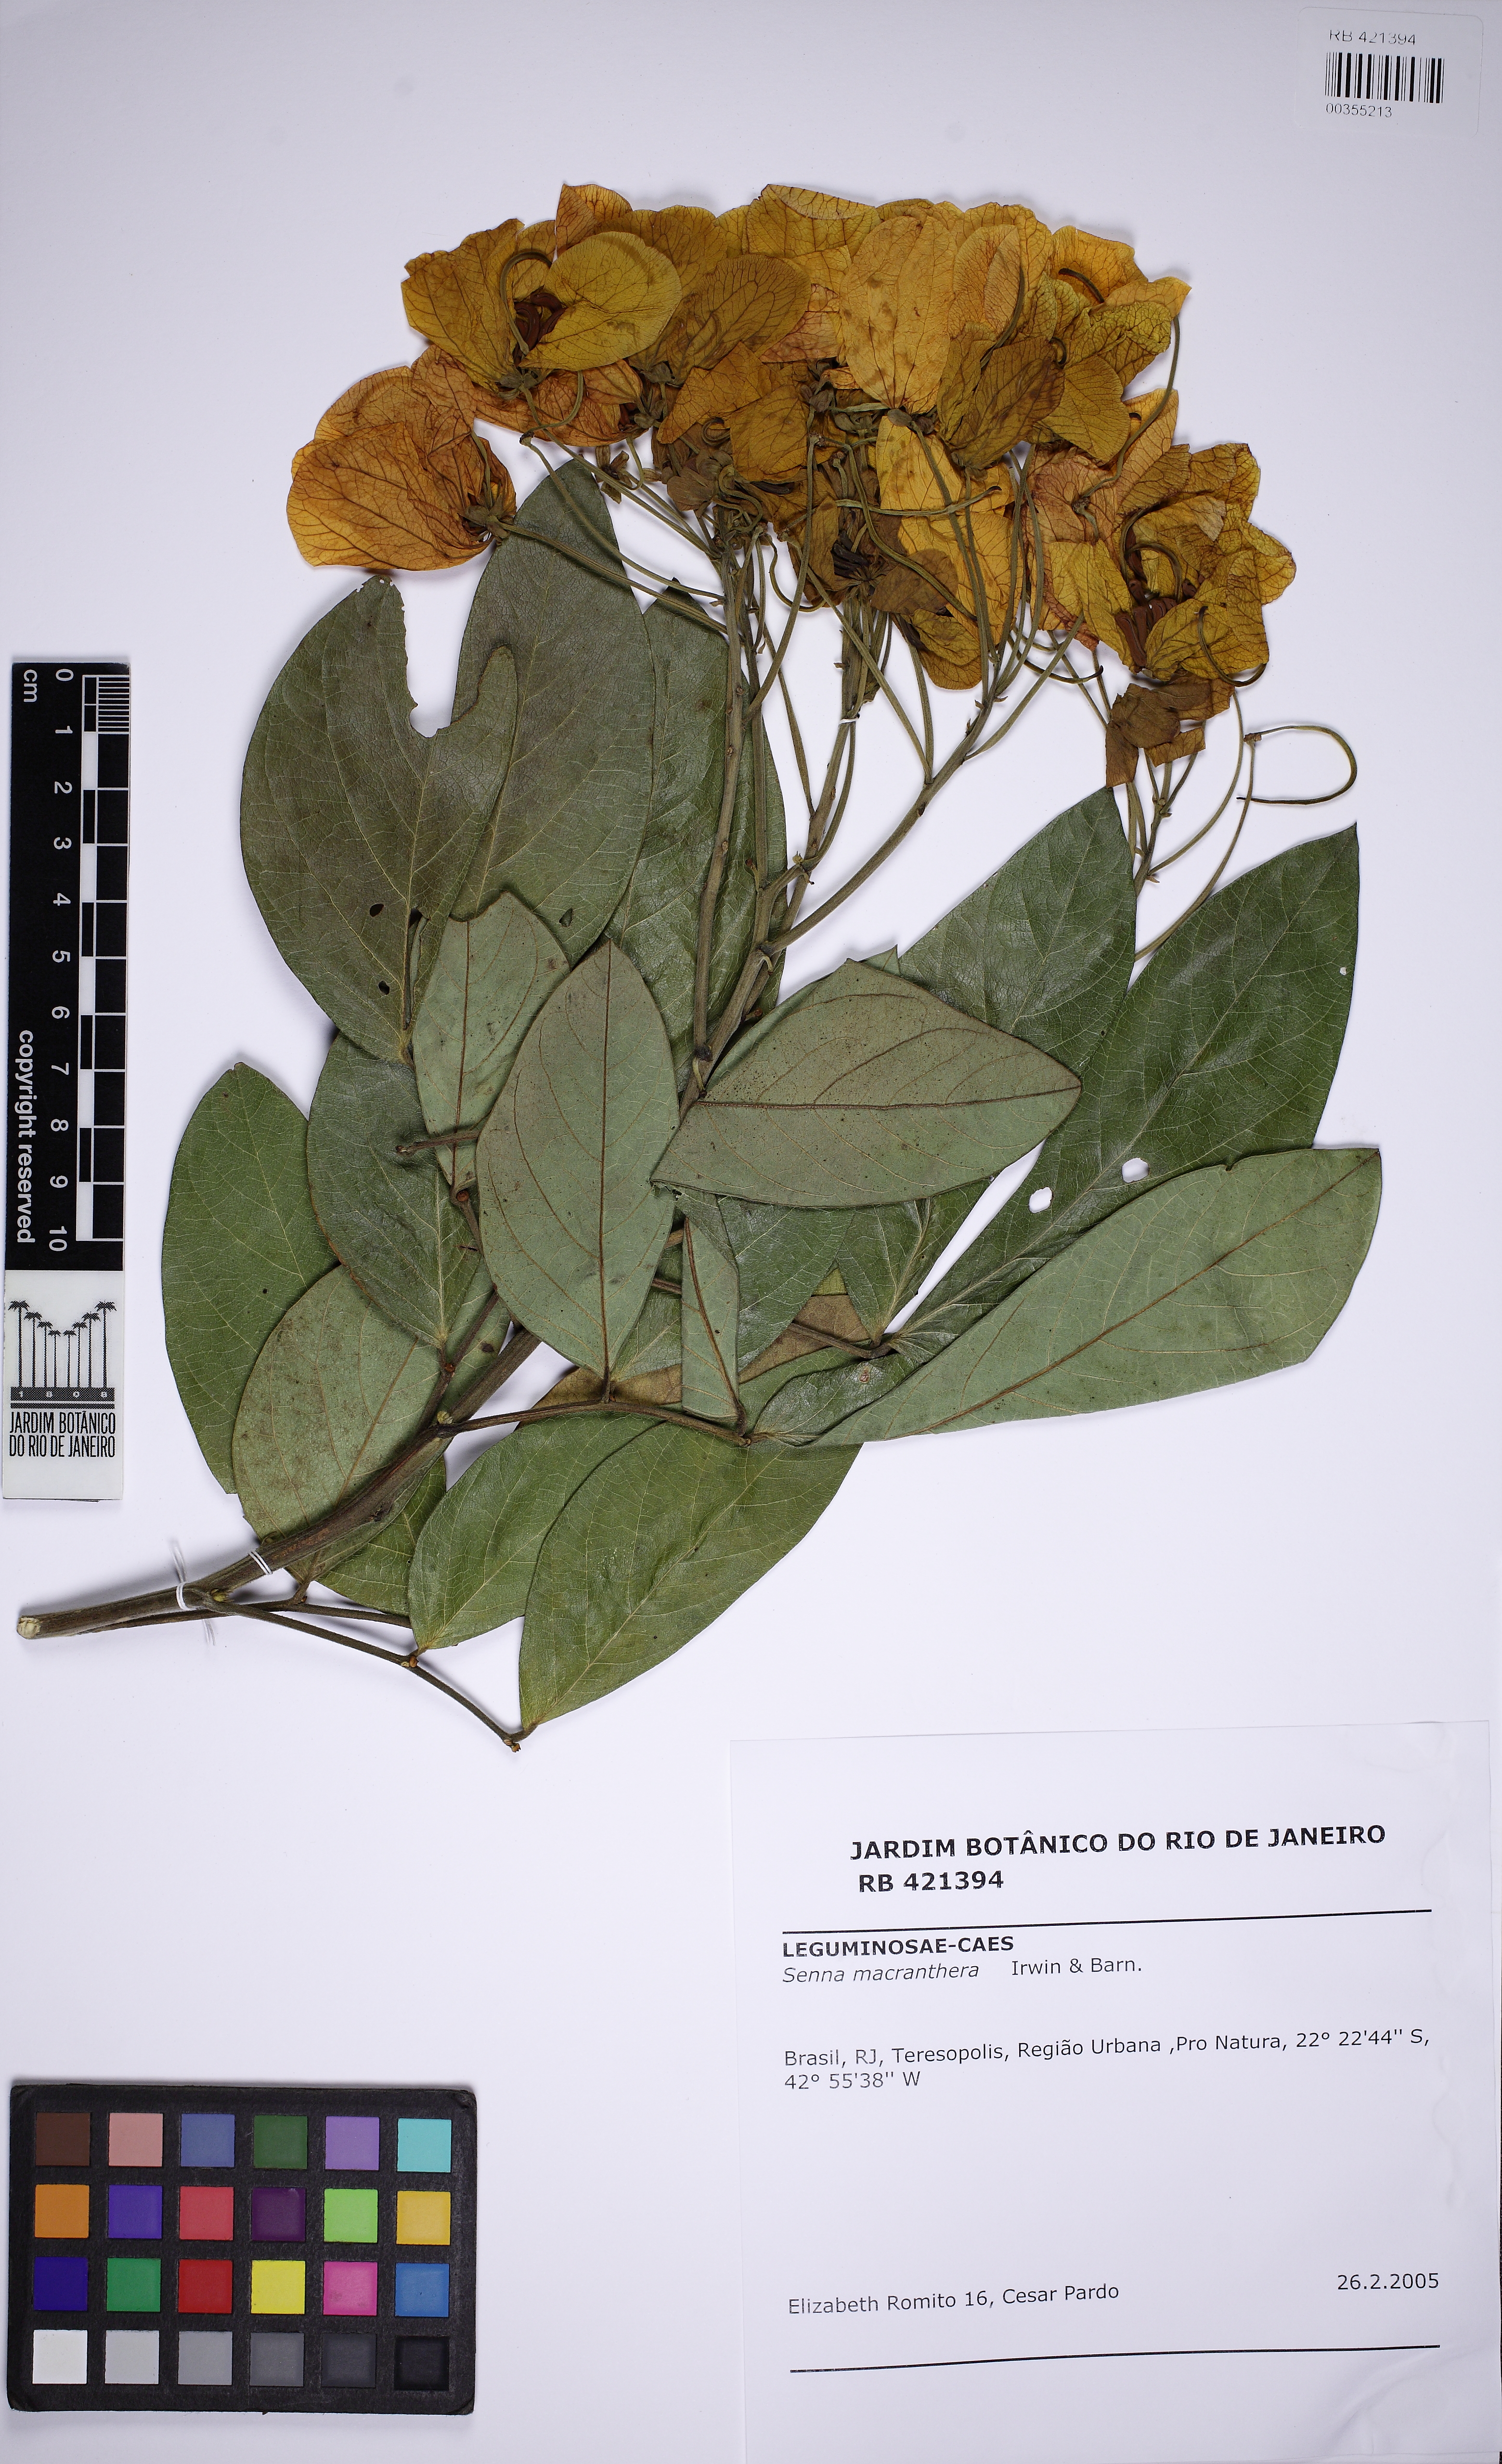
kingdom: Plantae
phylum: Tracheophyta
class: Magnoliopsida
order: Fabales
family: Fabaceae
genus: Senna
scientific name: Senna macranthera
